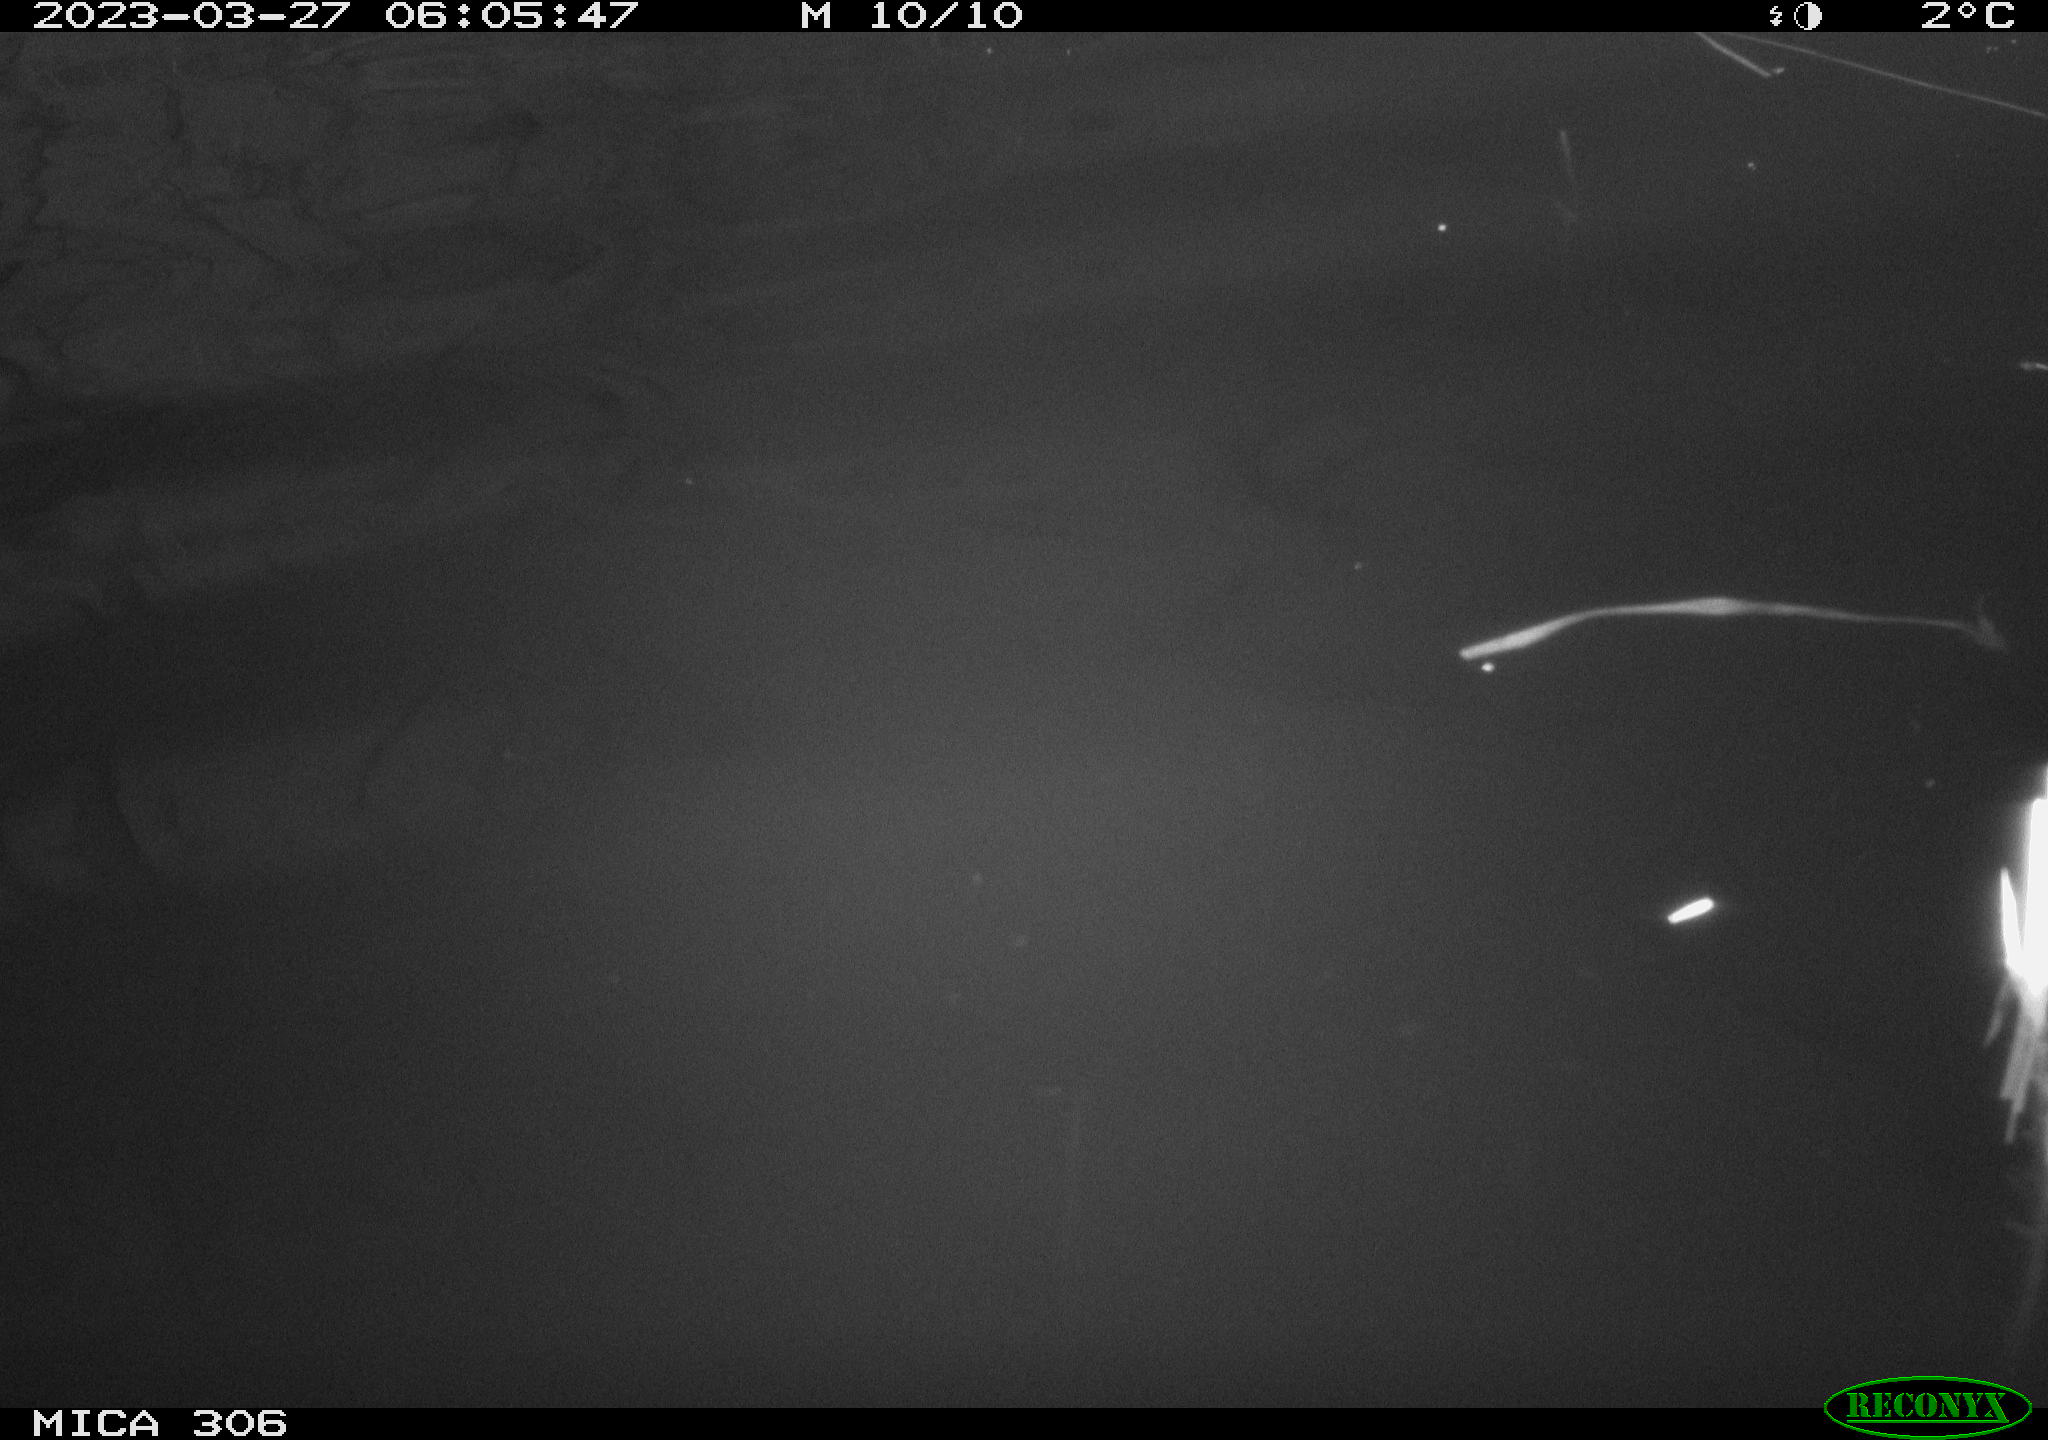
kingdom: Animalia
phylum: Chordata
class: Aves
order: Anseriformes
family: Anatidae
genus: Anas
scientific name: Anas
